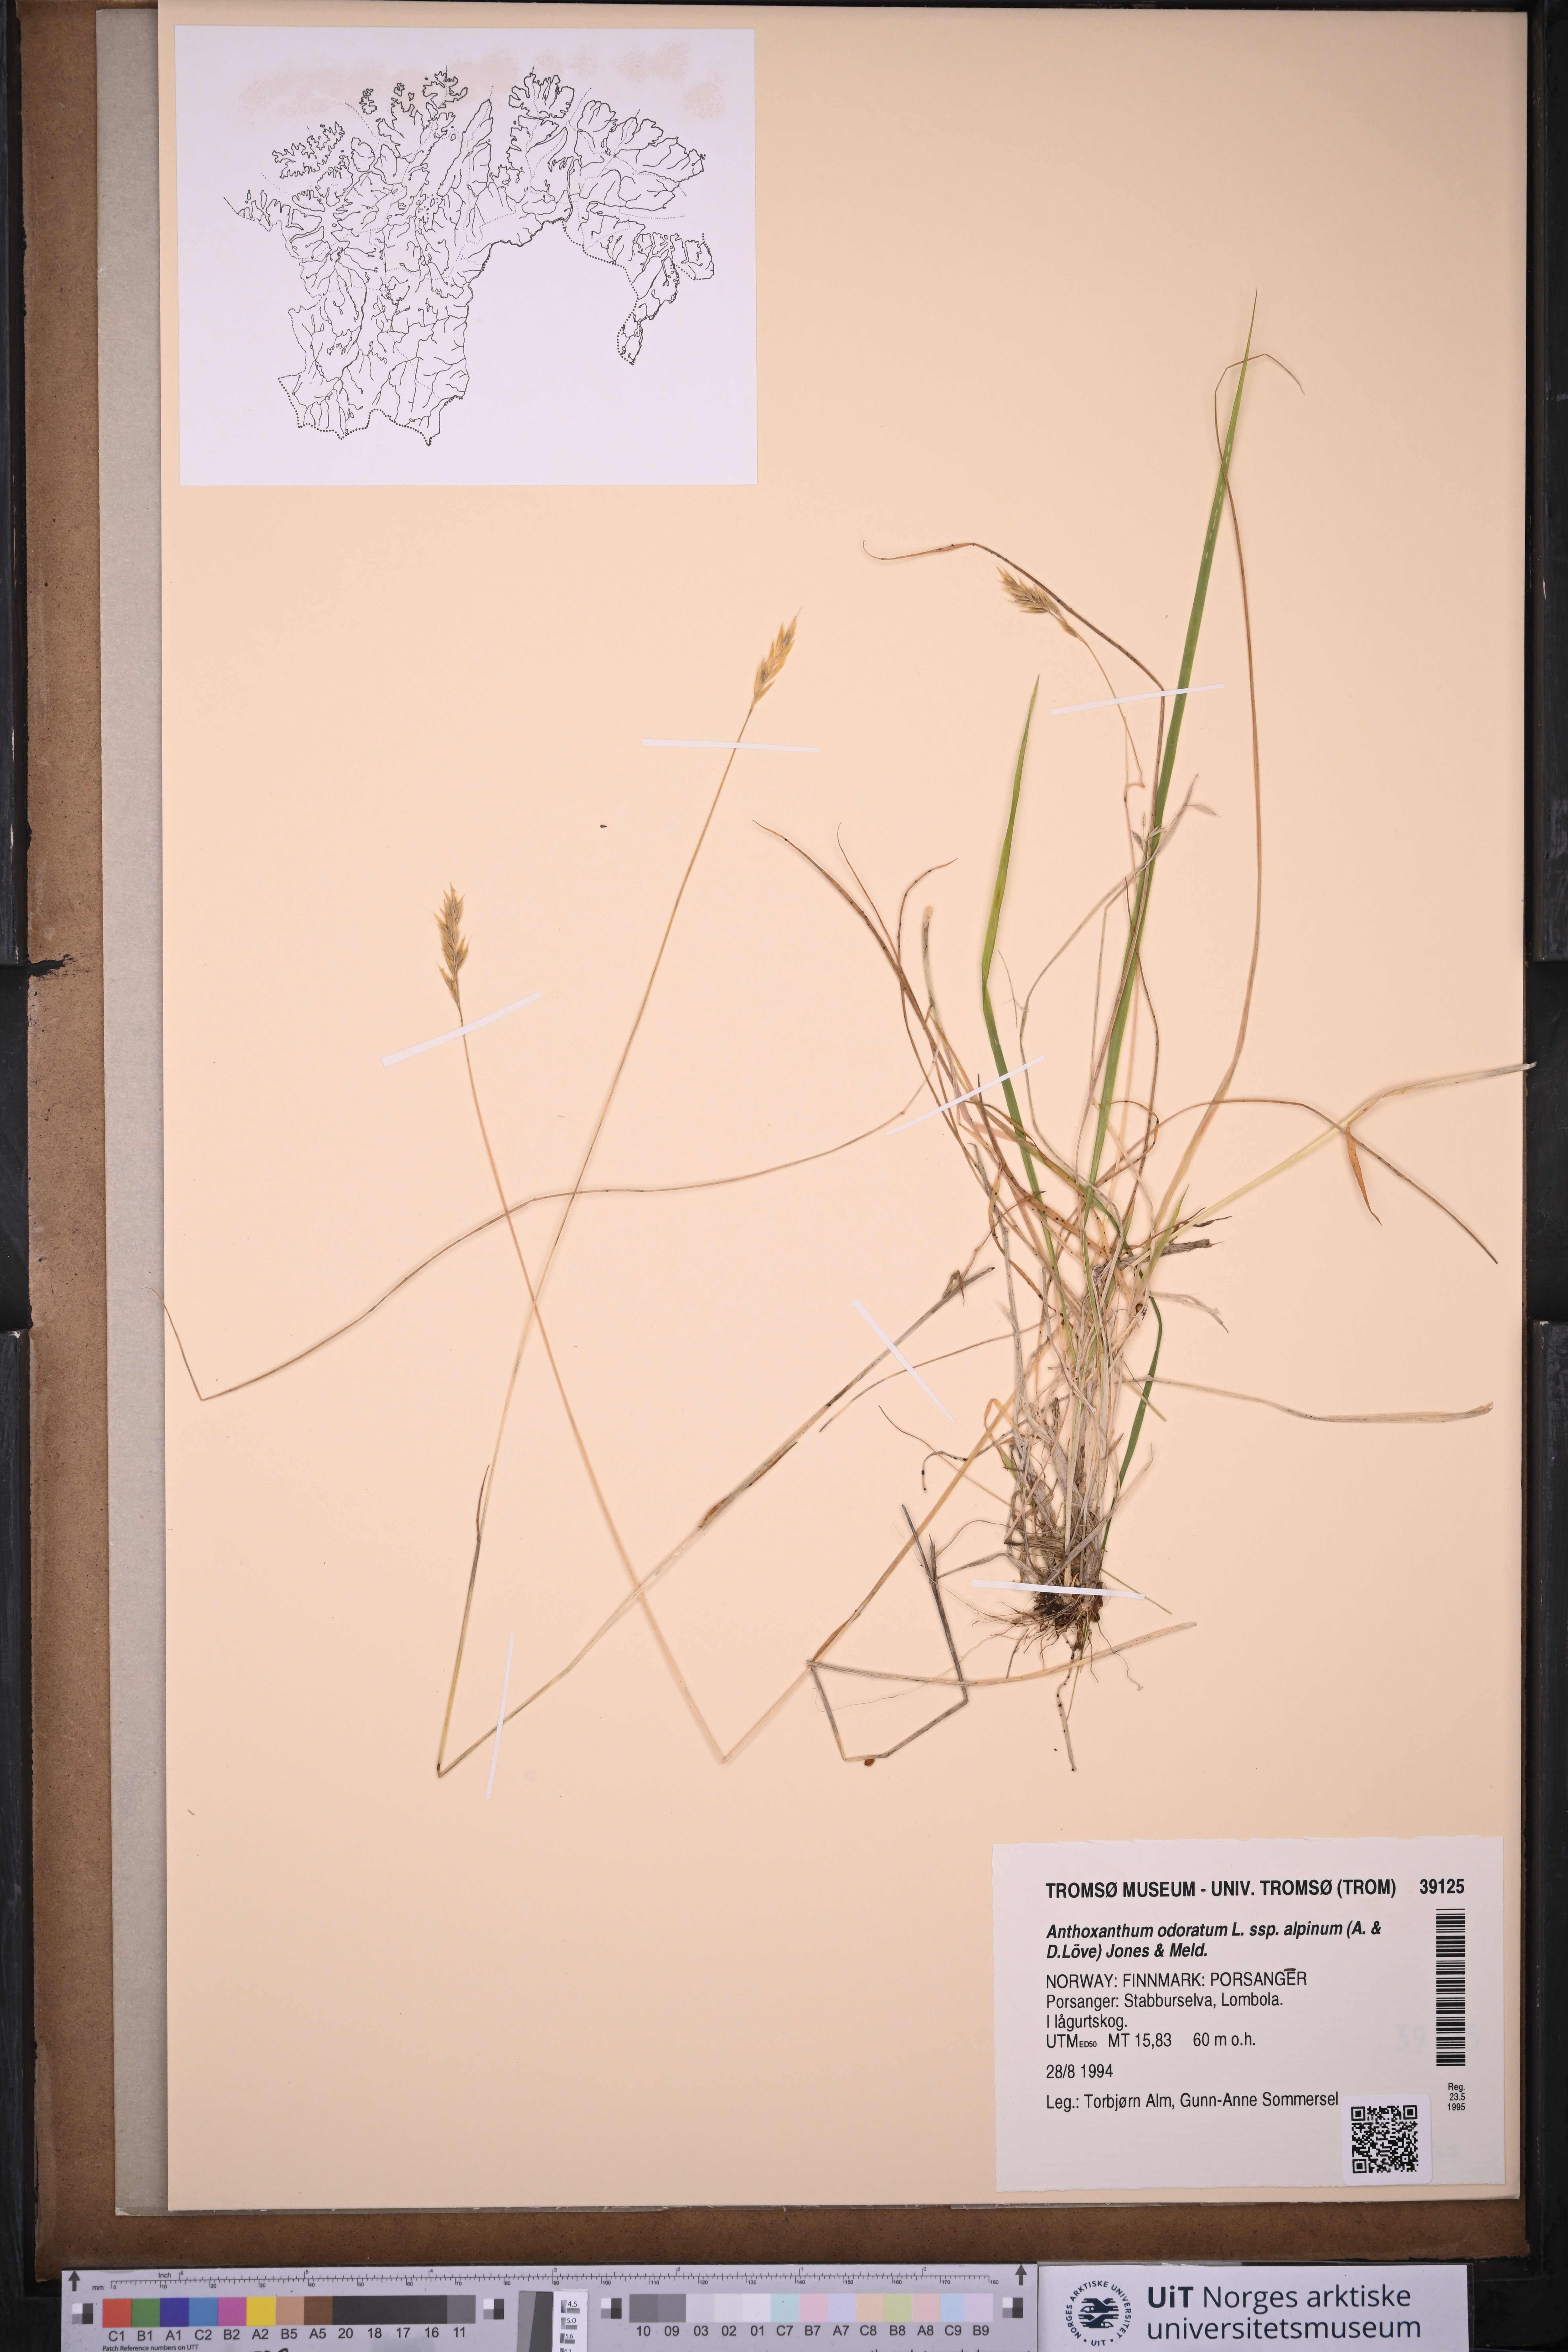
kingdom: Plantae
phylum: Tracheophyta
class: Liliopsida
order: Poales
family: Poaceae
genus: Anthoxanthum
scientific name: Anthoxanthum nipponicum
